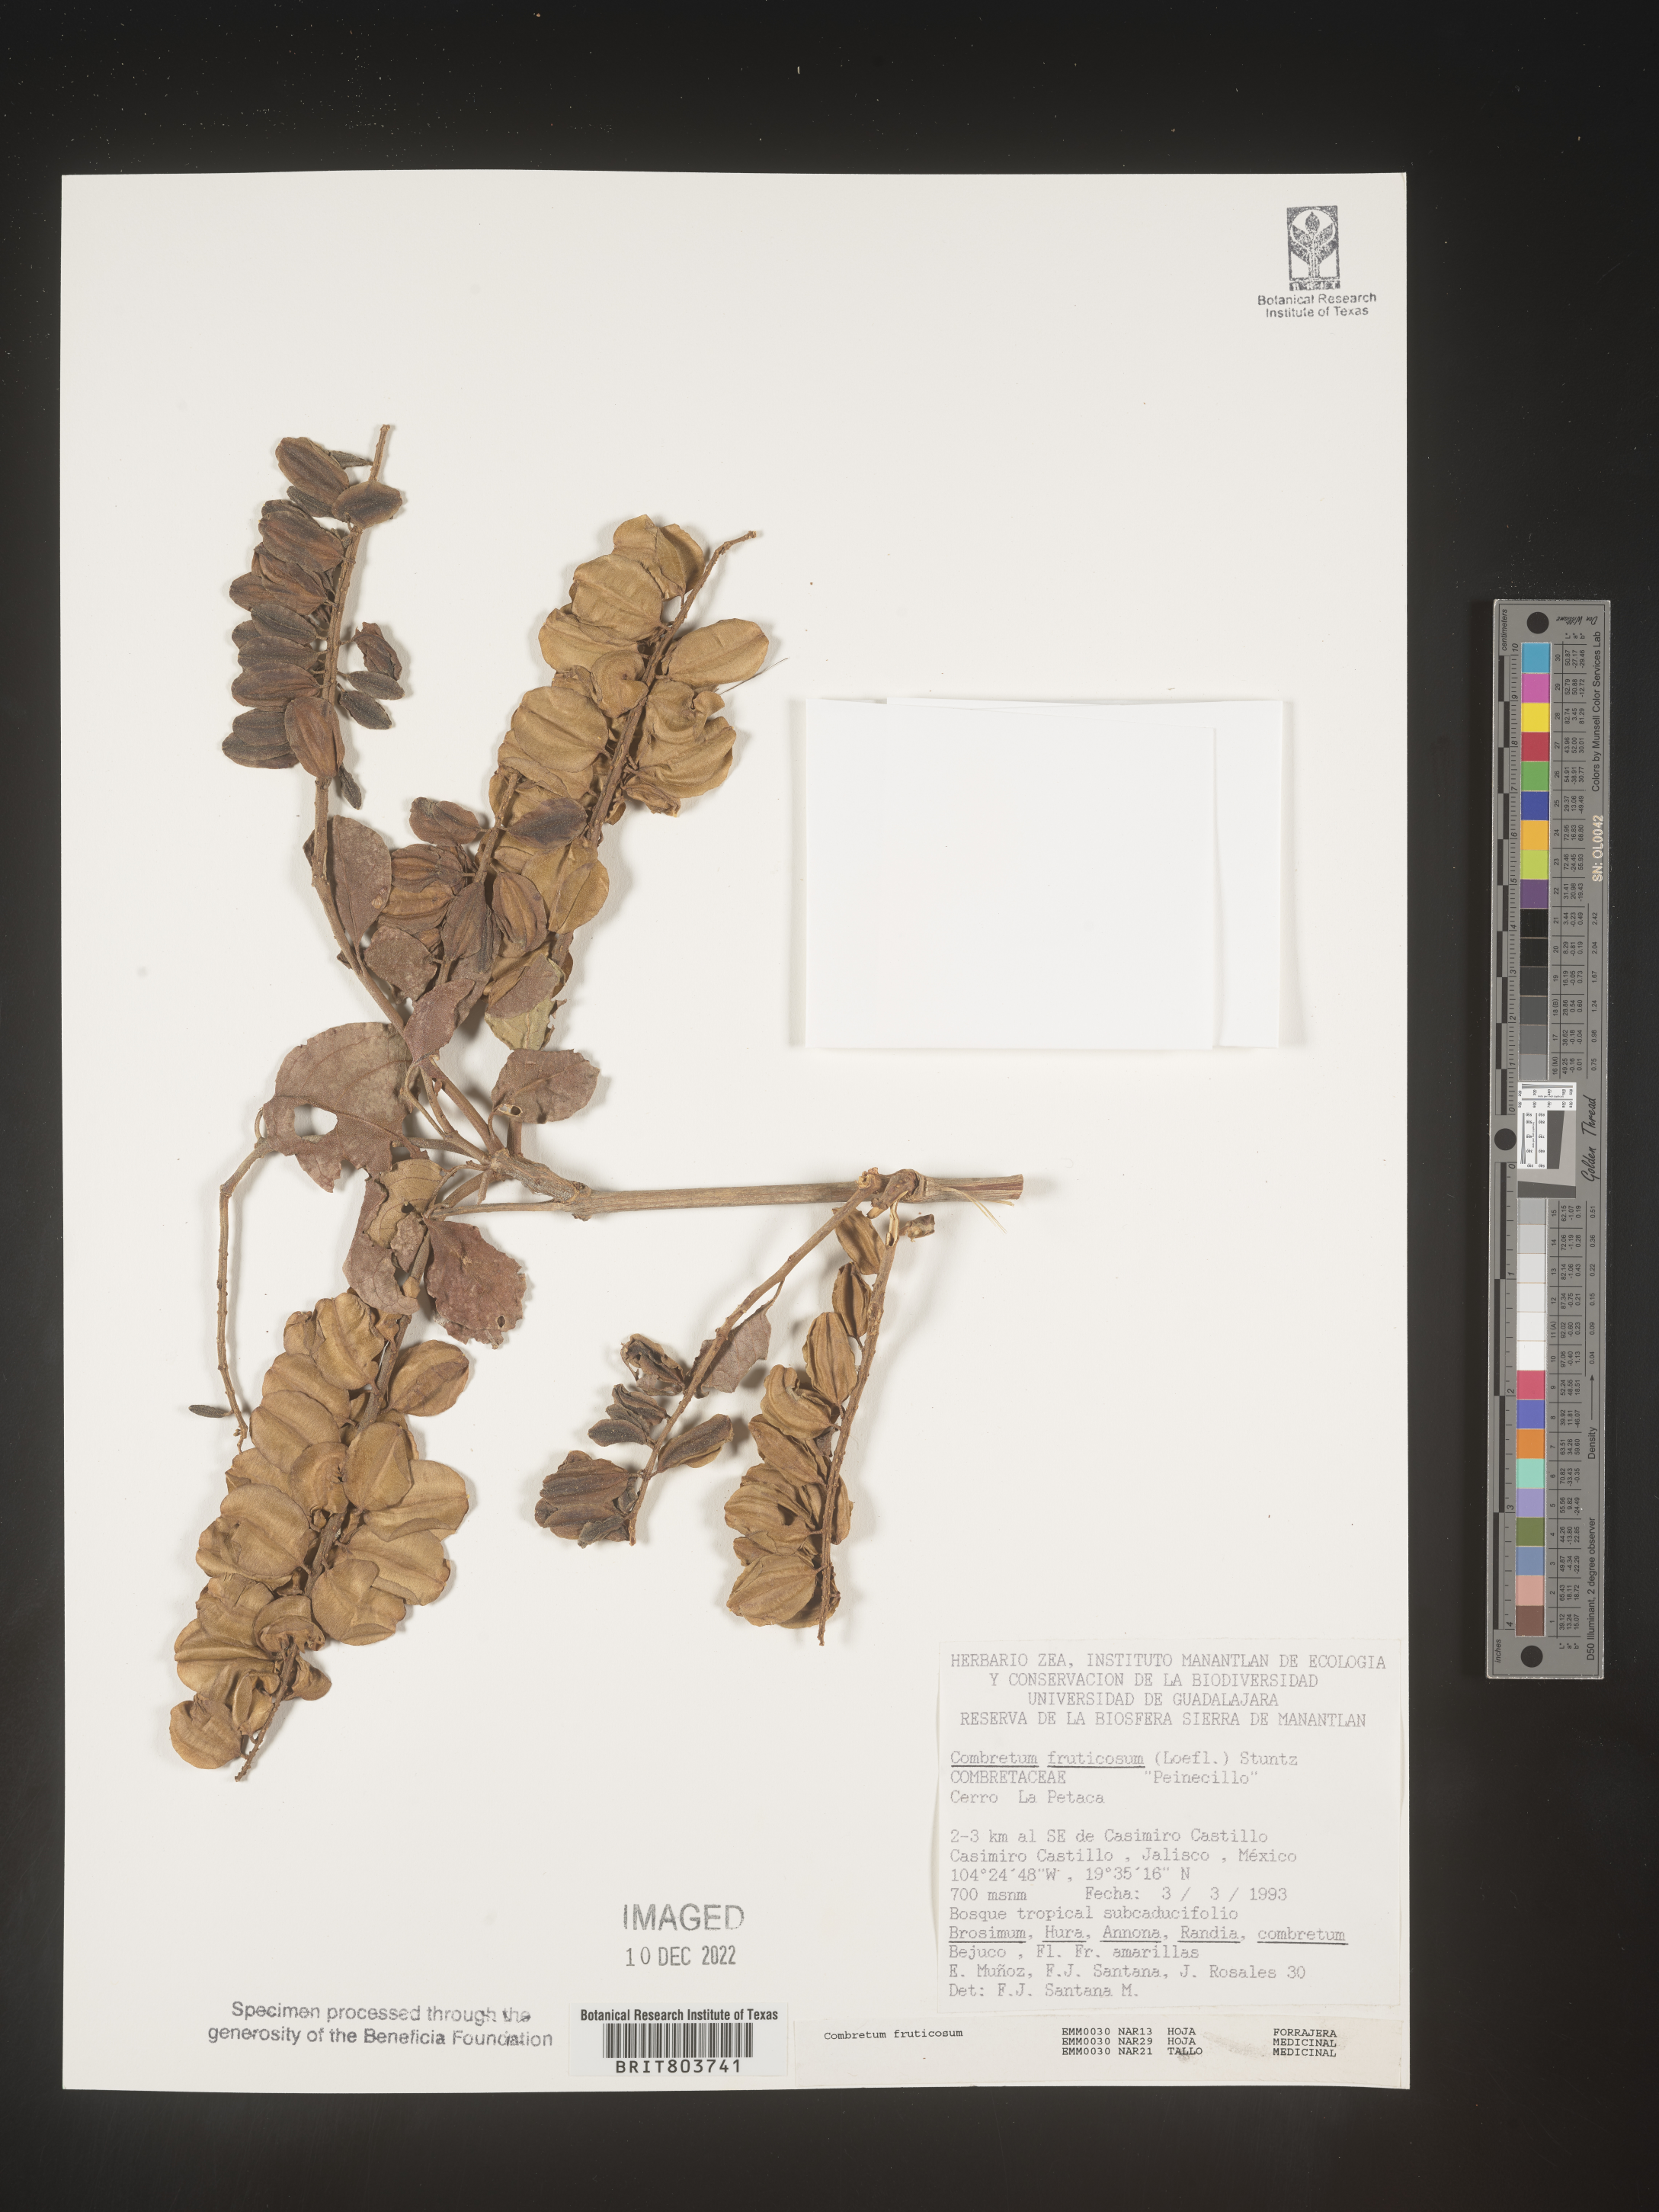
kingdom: Plantae
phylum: Tracheophyta
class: Magnoliopsida
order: Myrtales
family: Combretaceae
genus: Combretum
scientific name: Combretum
